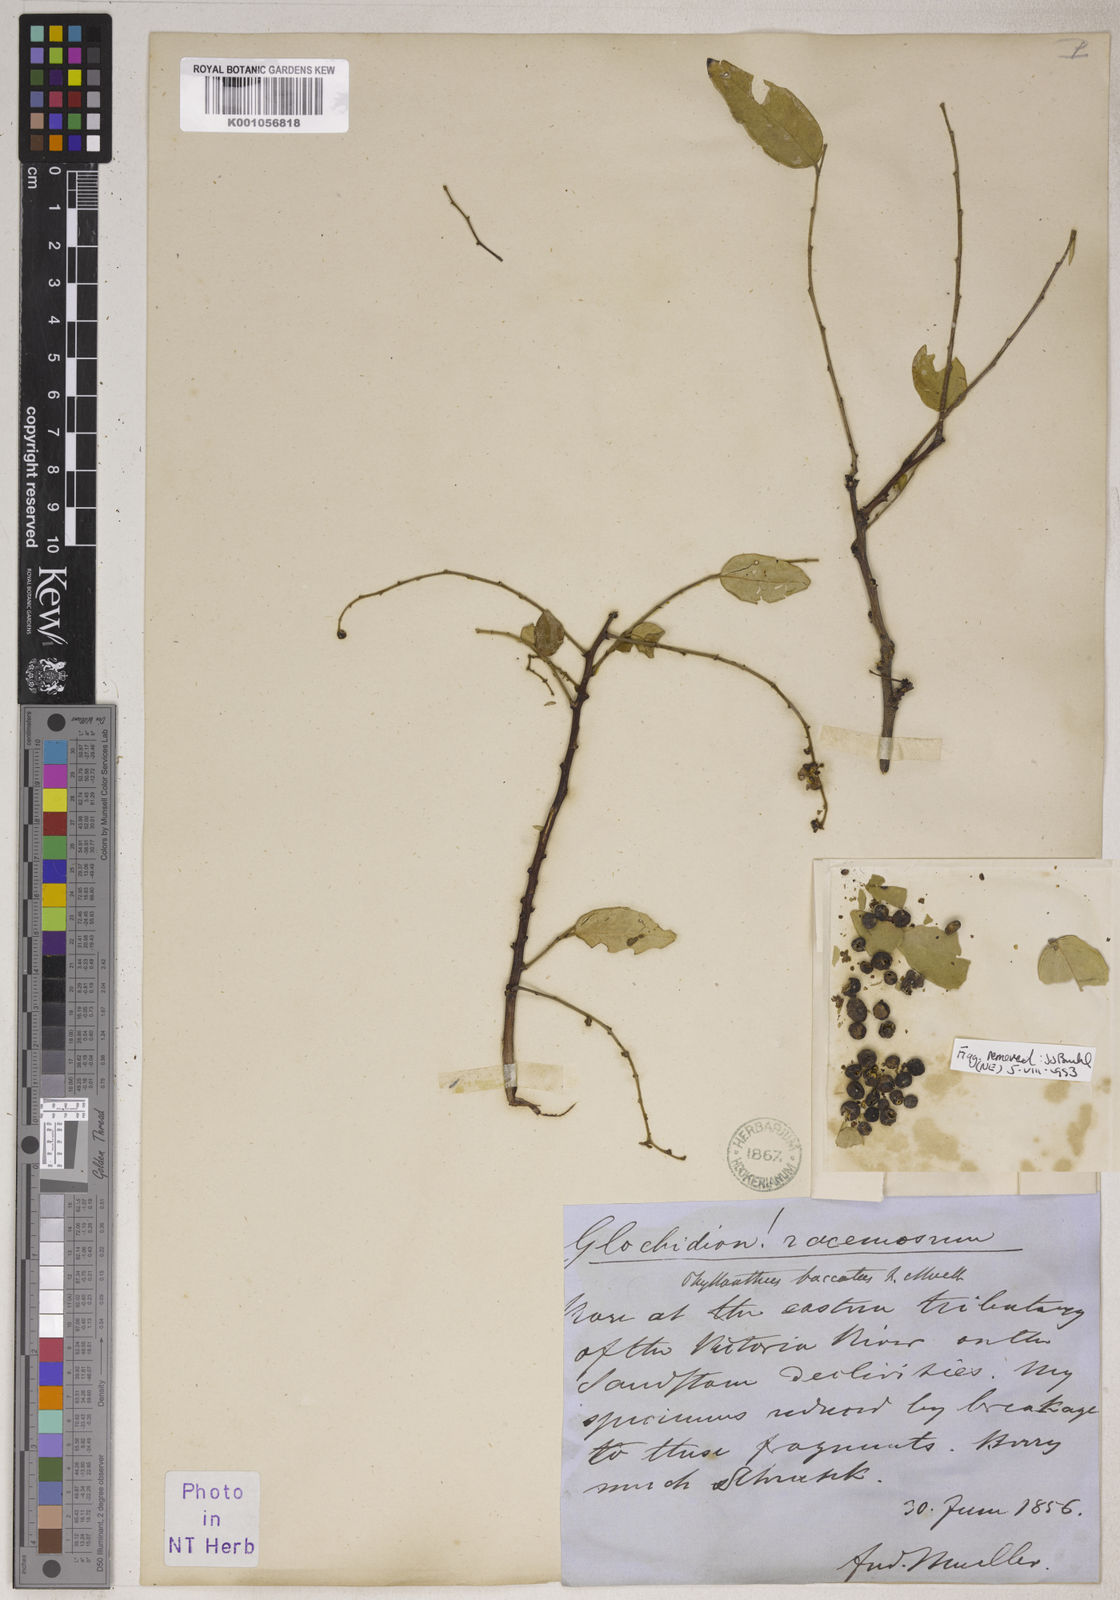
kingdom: Plantae
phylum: Tracheophyta
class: Magnoliopsida
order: Malpighiales
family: Phyllanthaceae
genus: Phyllanthus
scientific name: Phyllanthus
